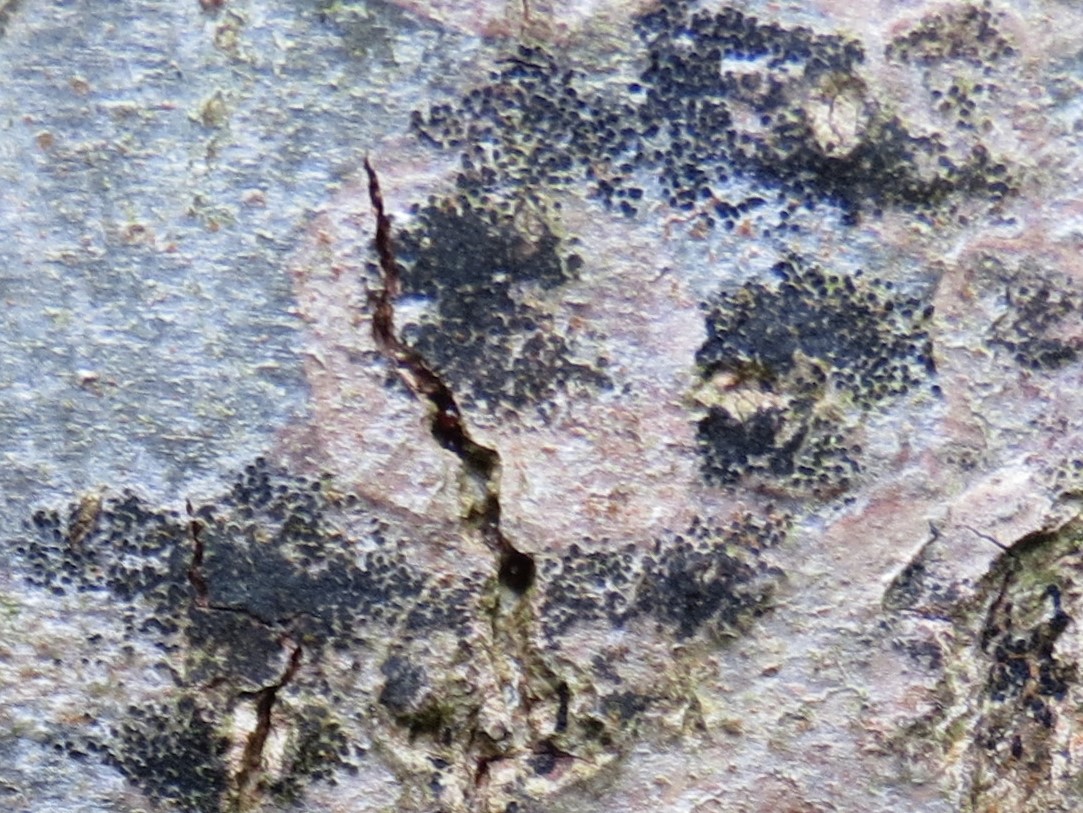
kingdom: Fungi
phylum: Ascomycota
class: Leotiomycetes
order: Rhytismatales
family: Ascodichaenaceae
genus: Ascodichaena
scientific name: Ascodichaena rugosa
